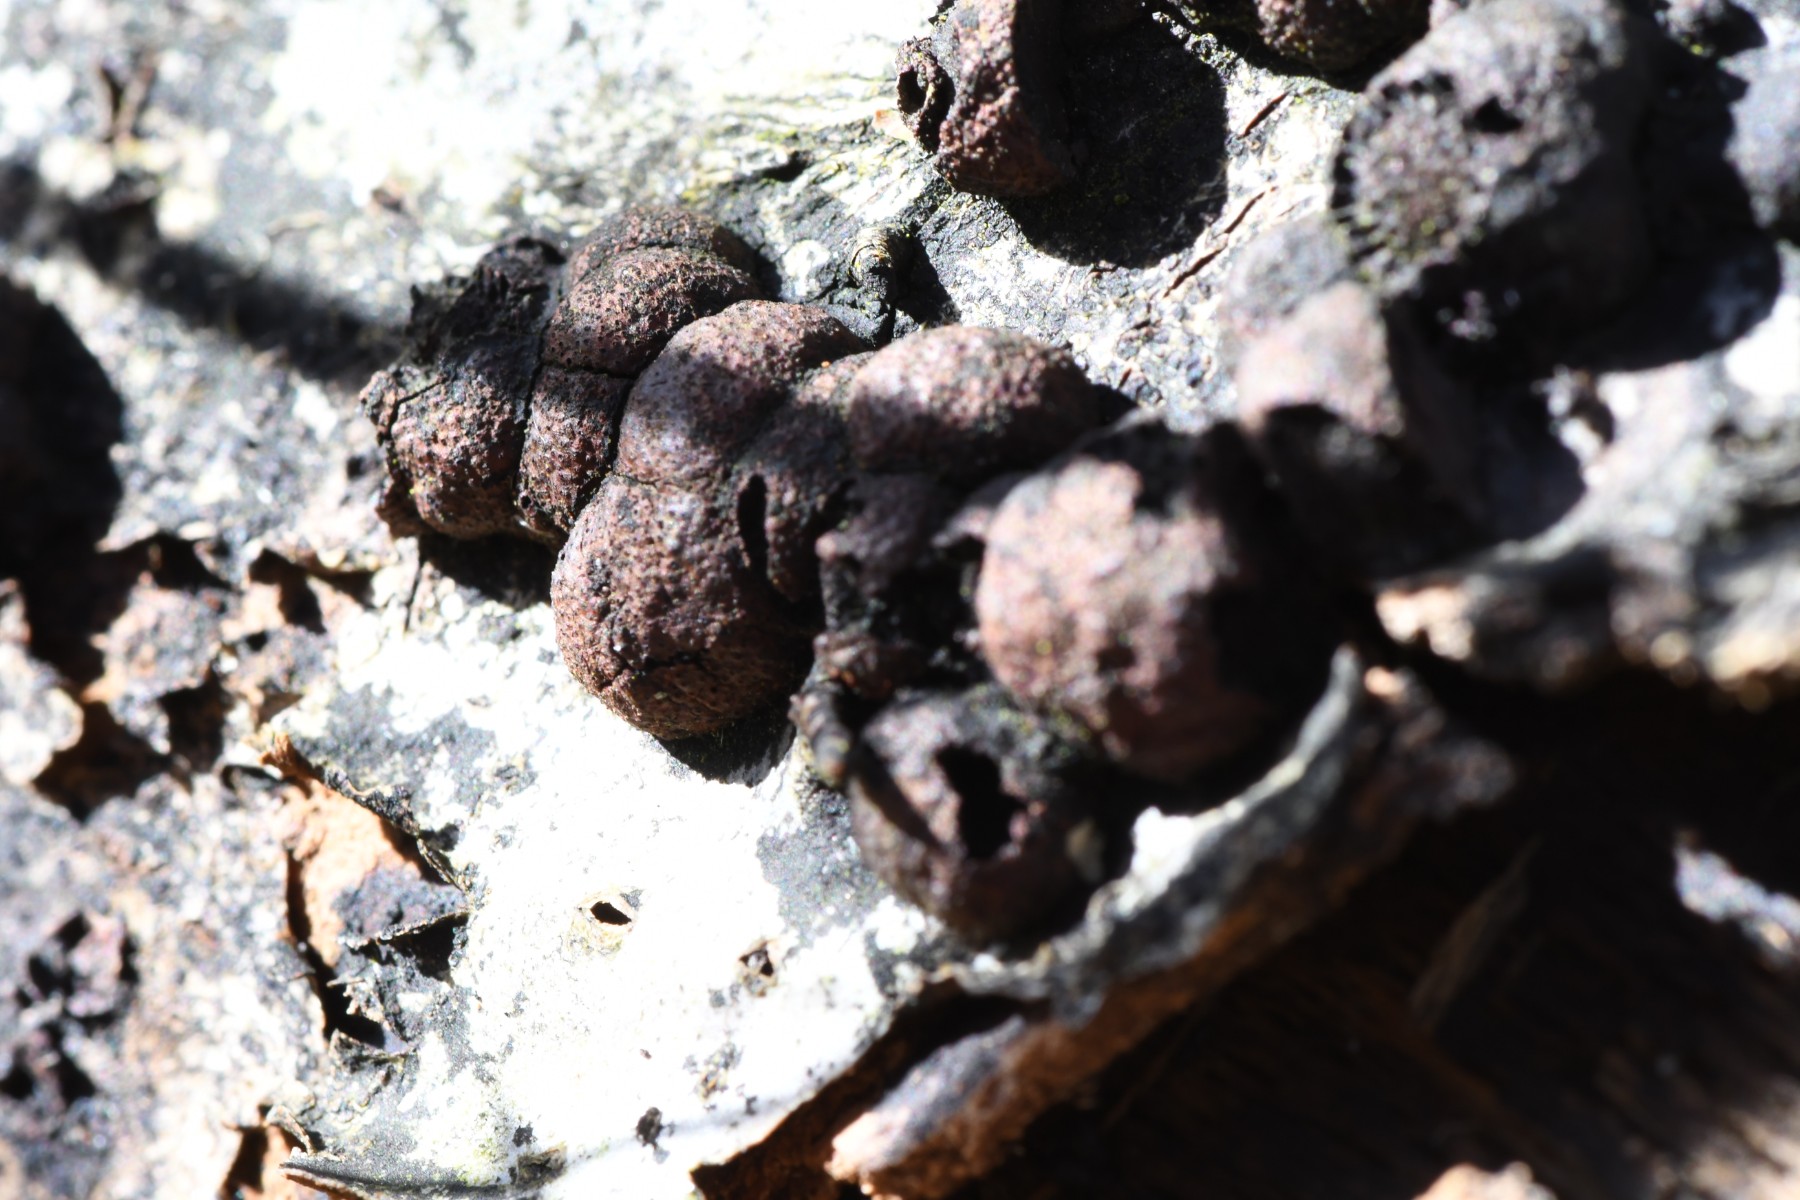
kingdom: Fungi
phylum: Ascomycota
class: Sordariomycetes
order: Xylariales
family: Hypoxylaceae
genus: Hypoxylon
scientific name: Hypoxylon fragiforme
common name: kuljordbær
